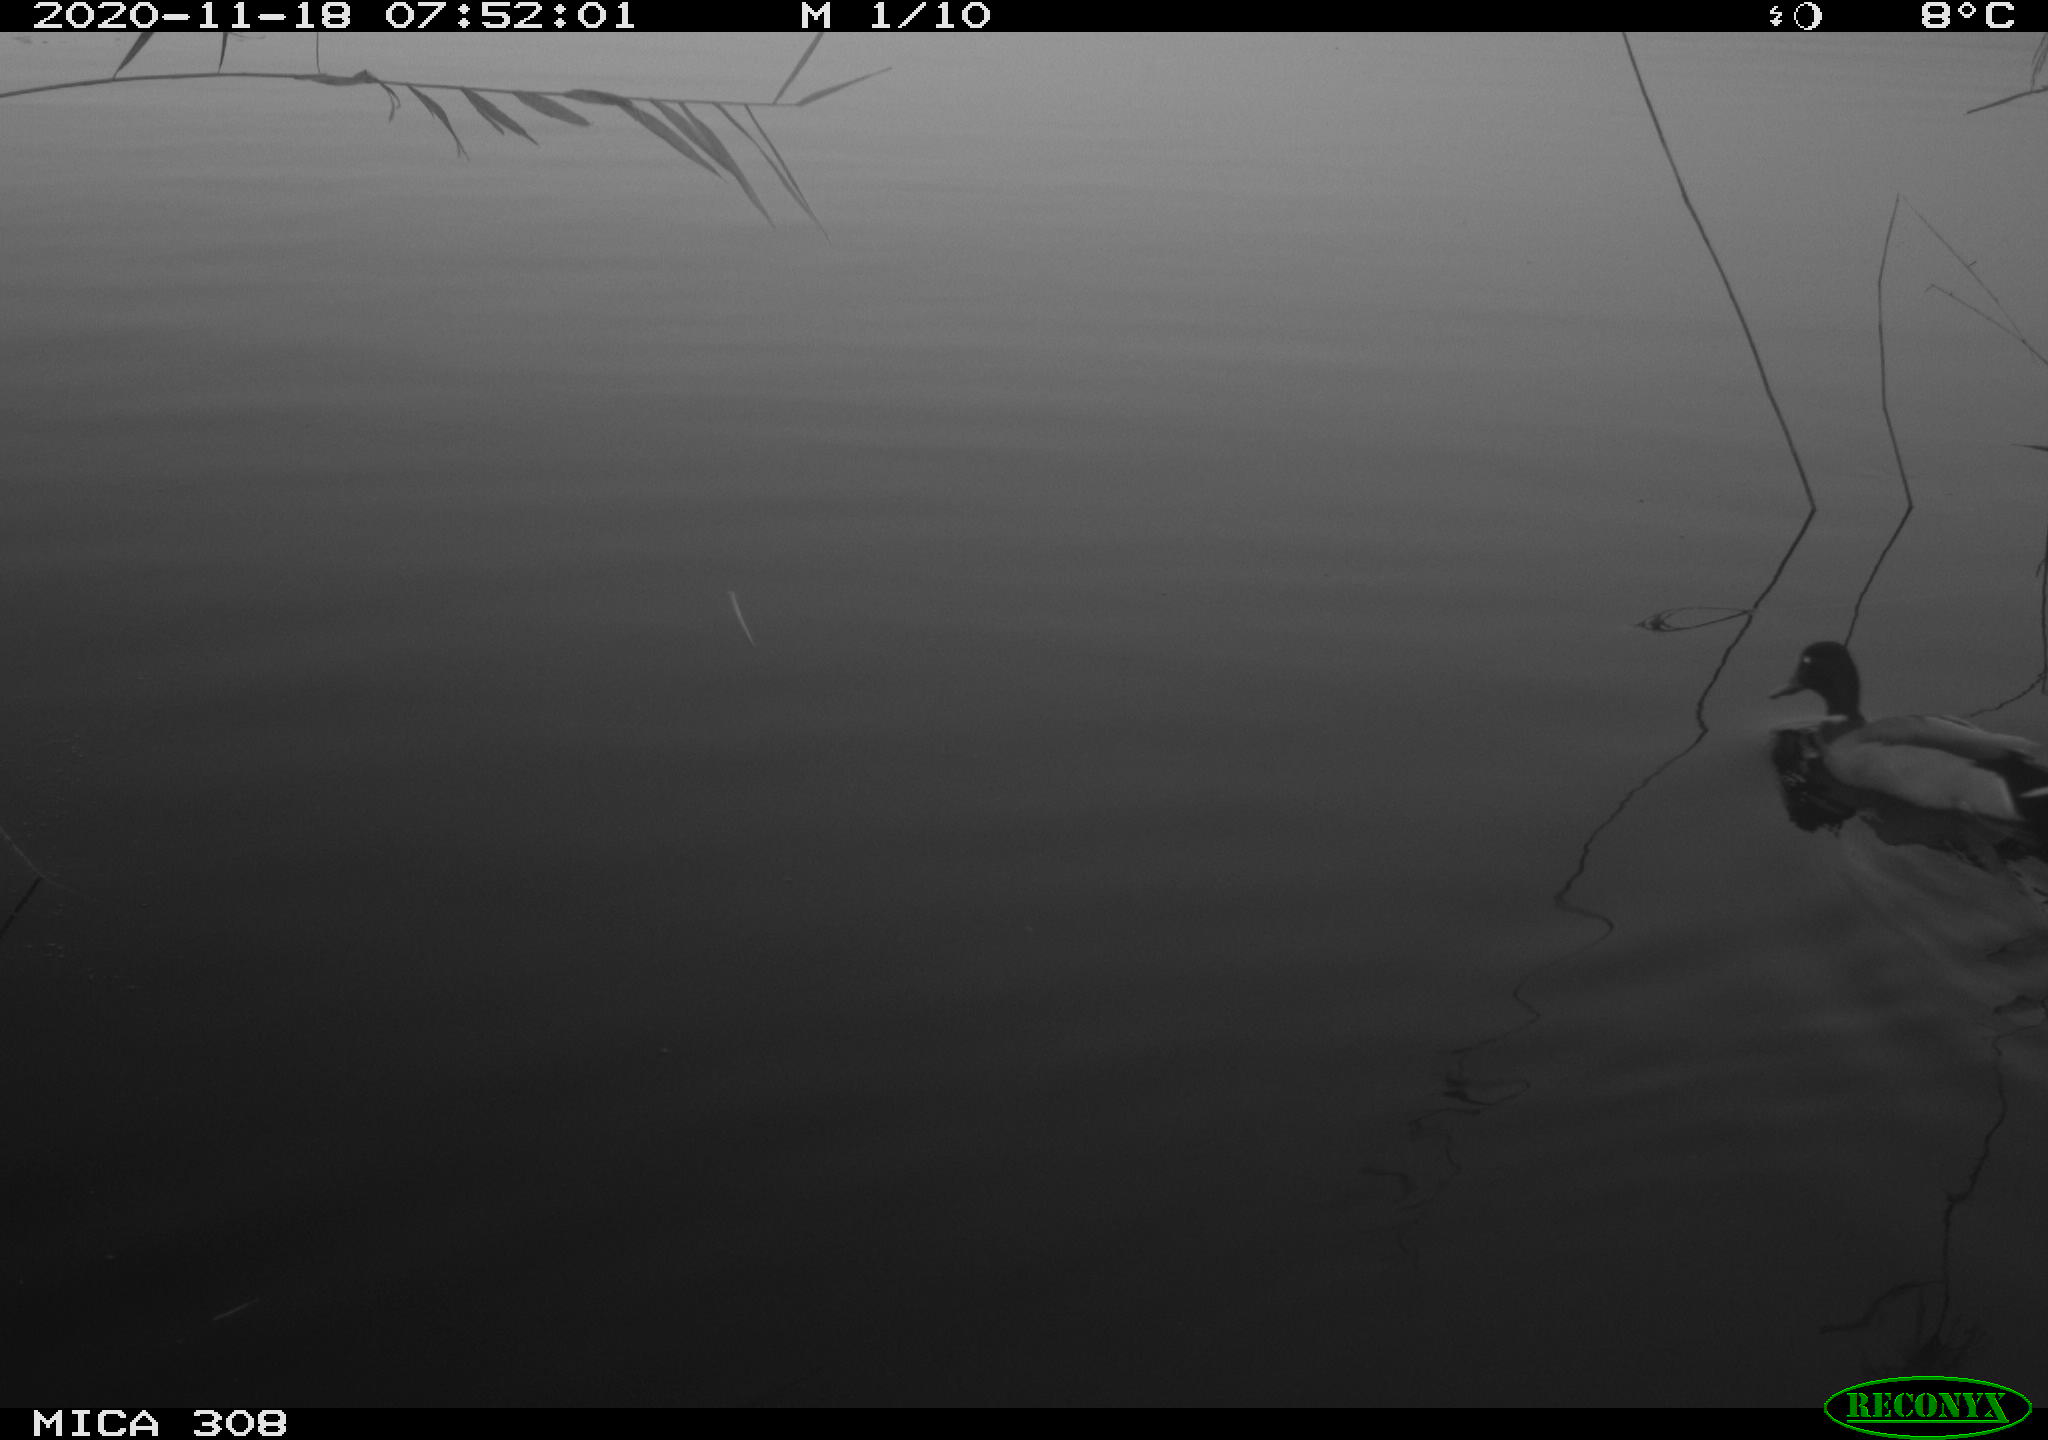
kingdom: Animalia
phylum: Chordata
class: Aves
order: Anseriformes
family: Anatidae
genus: Anas
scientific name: Anas platyrhynchos
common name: Mallard
